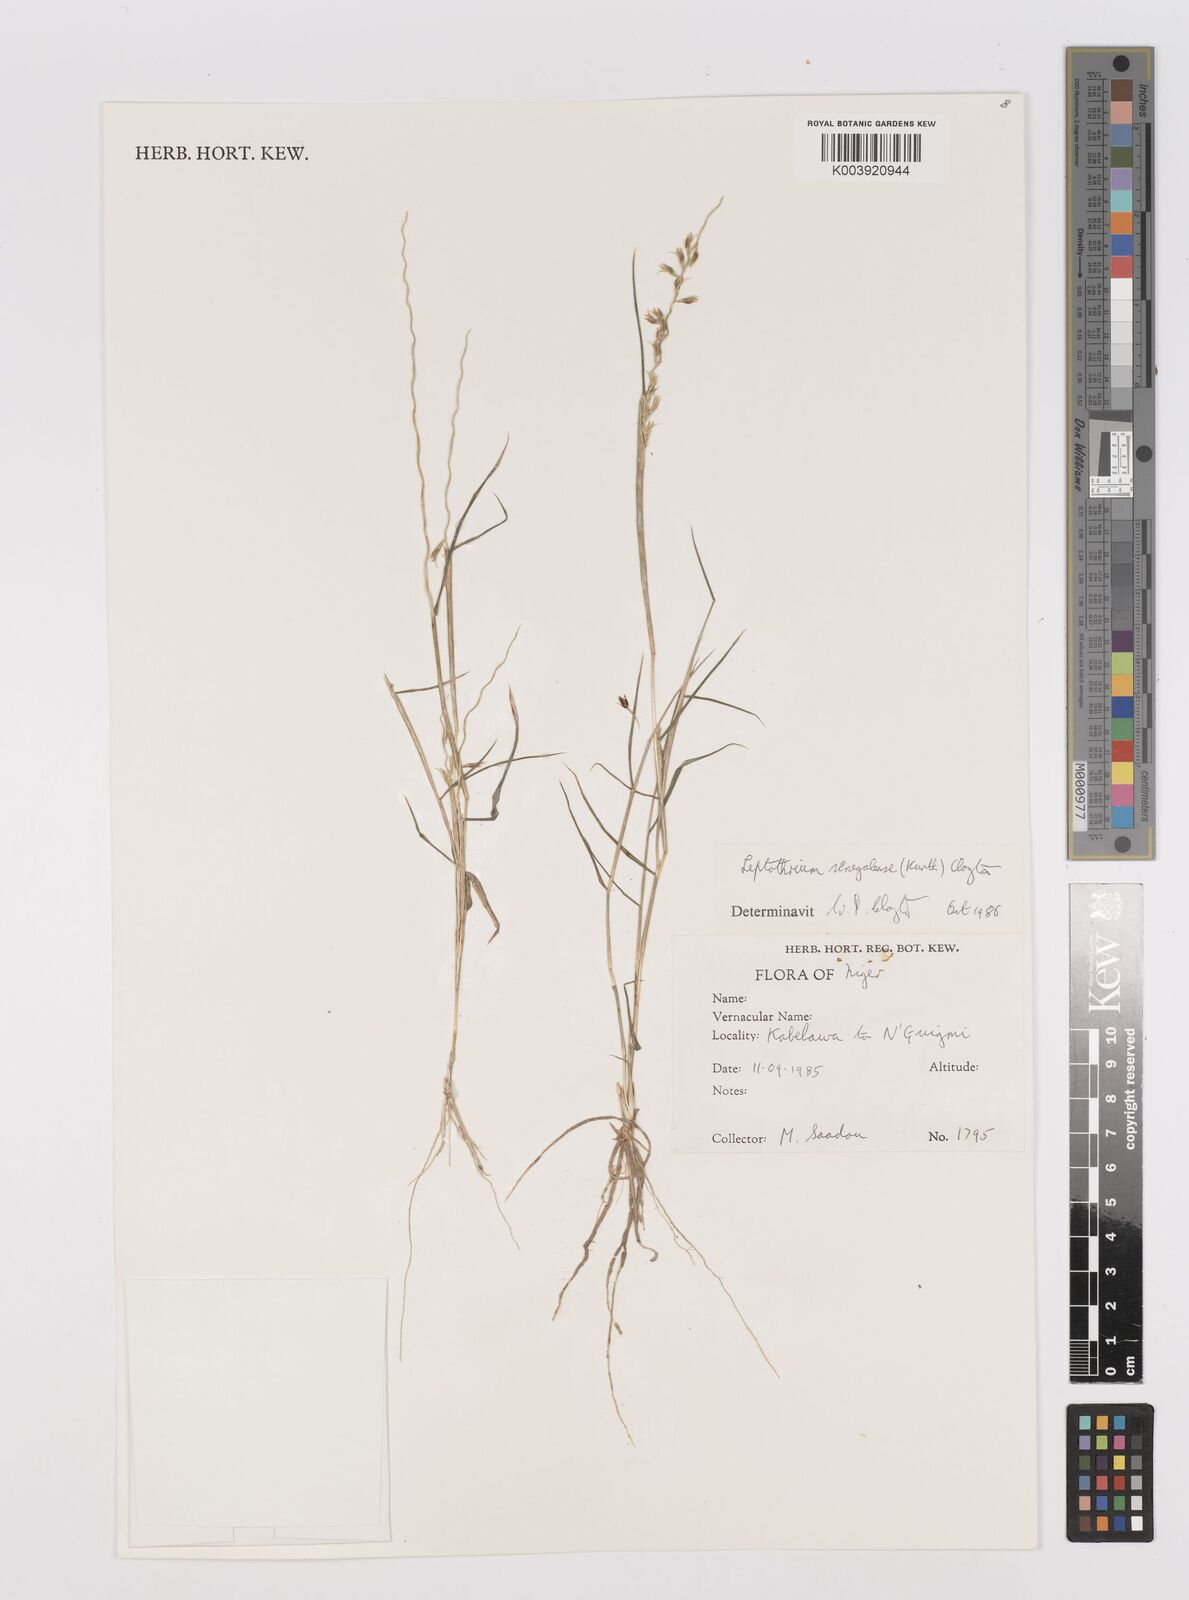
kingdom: Plantae
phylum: Tracheophyta
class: Liliopsida
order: Poales
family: Poaceae
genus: Leptothrium
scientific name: Leptothrium senegalense
